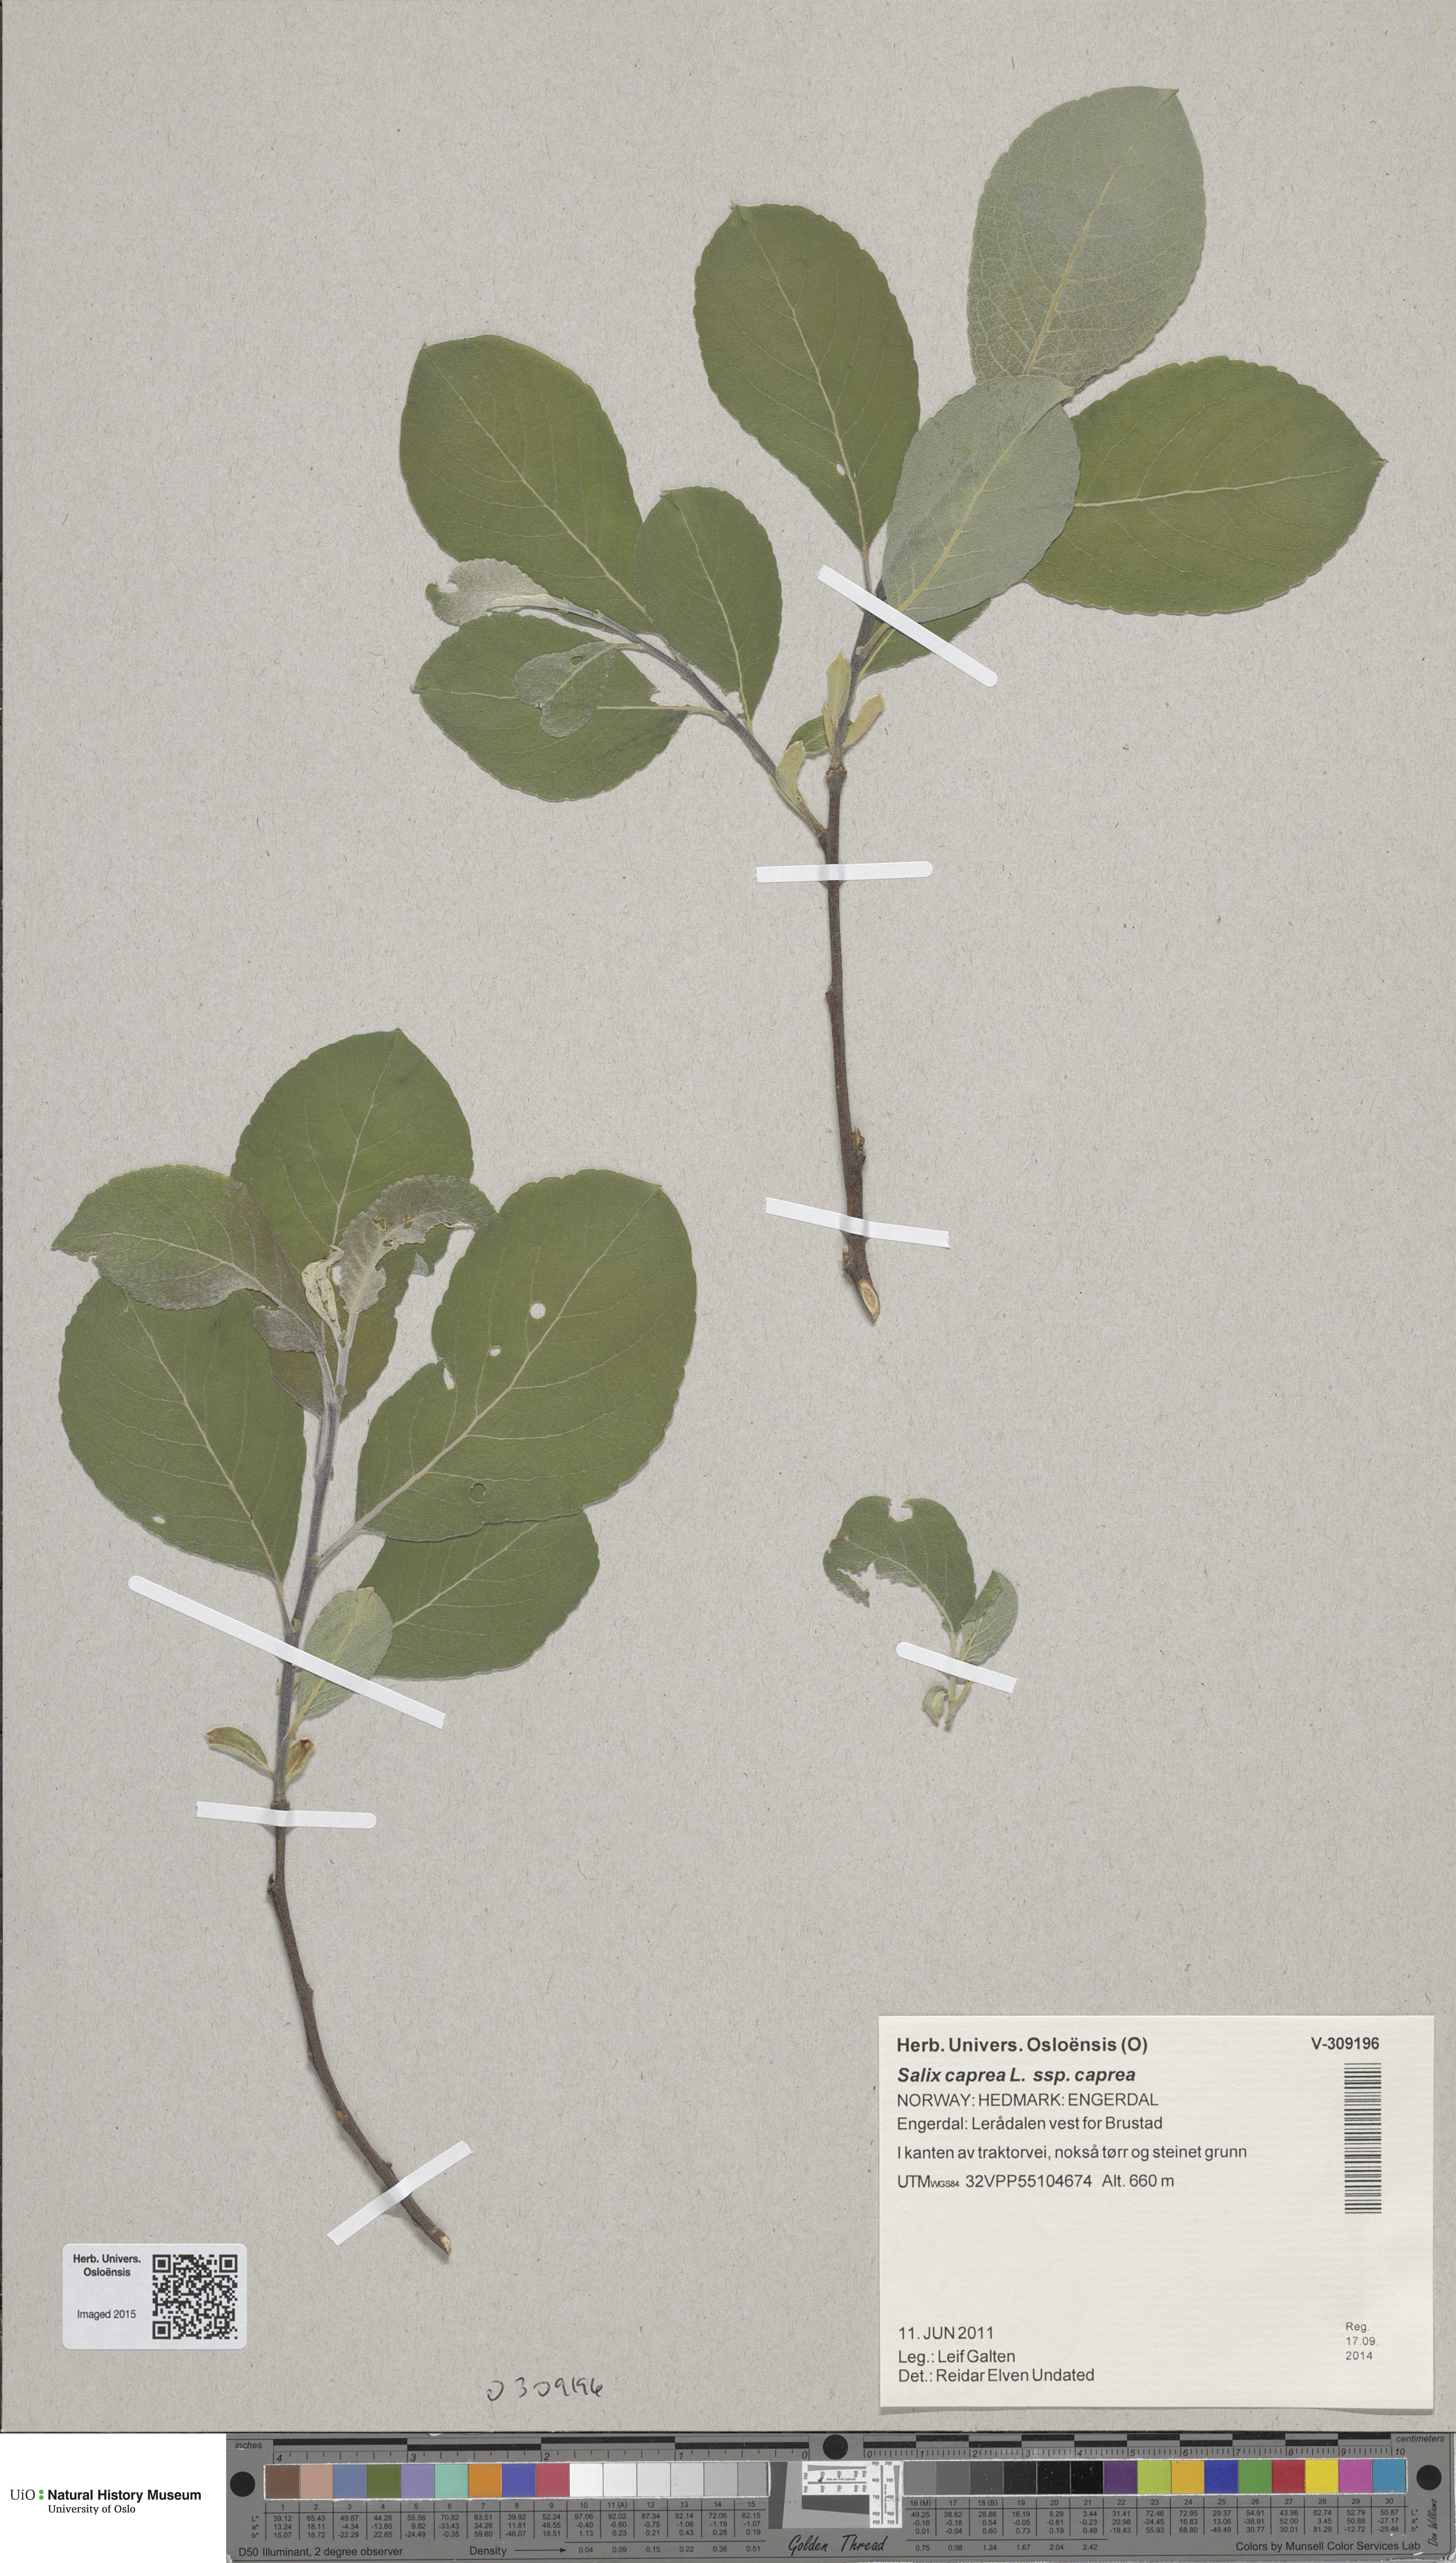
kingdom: Plantae
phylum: Tracheophyta
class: Magnoliopsida
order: Malpighiales
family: Salicaceae
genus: Salix
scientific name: Salix caprea
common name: Goat willow
